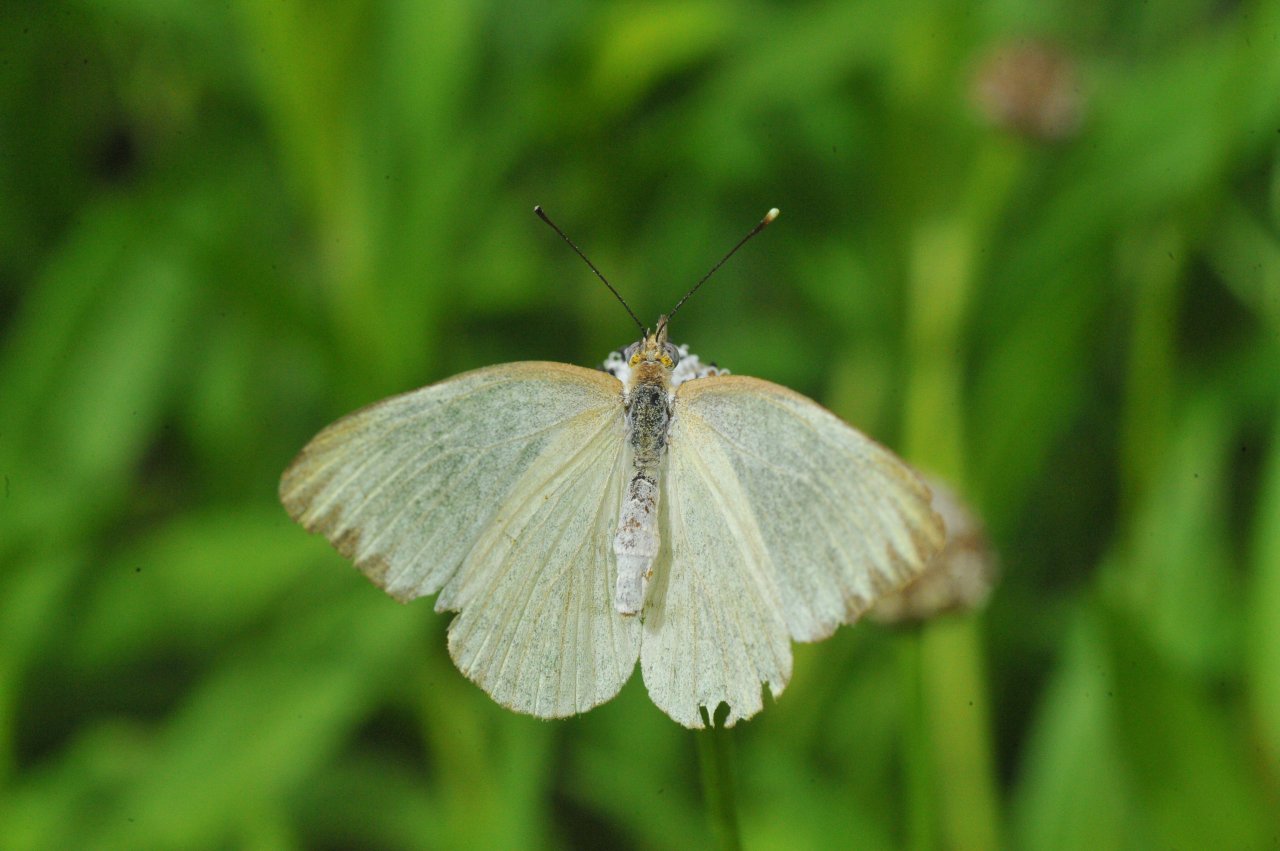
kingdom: Animalia
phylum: Arthropoda
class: Insecta
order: Lepidoptera
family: Pieridae
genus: Ascia
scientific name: Ascia monuste
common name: Great Southern White
